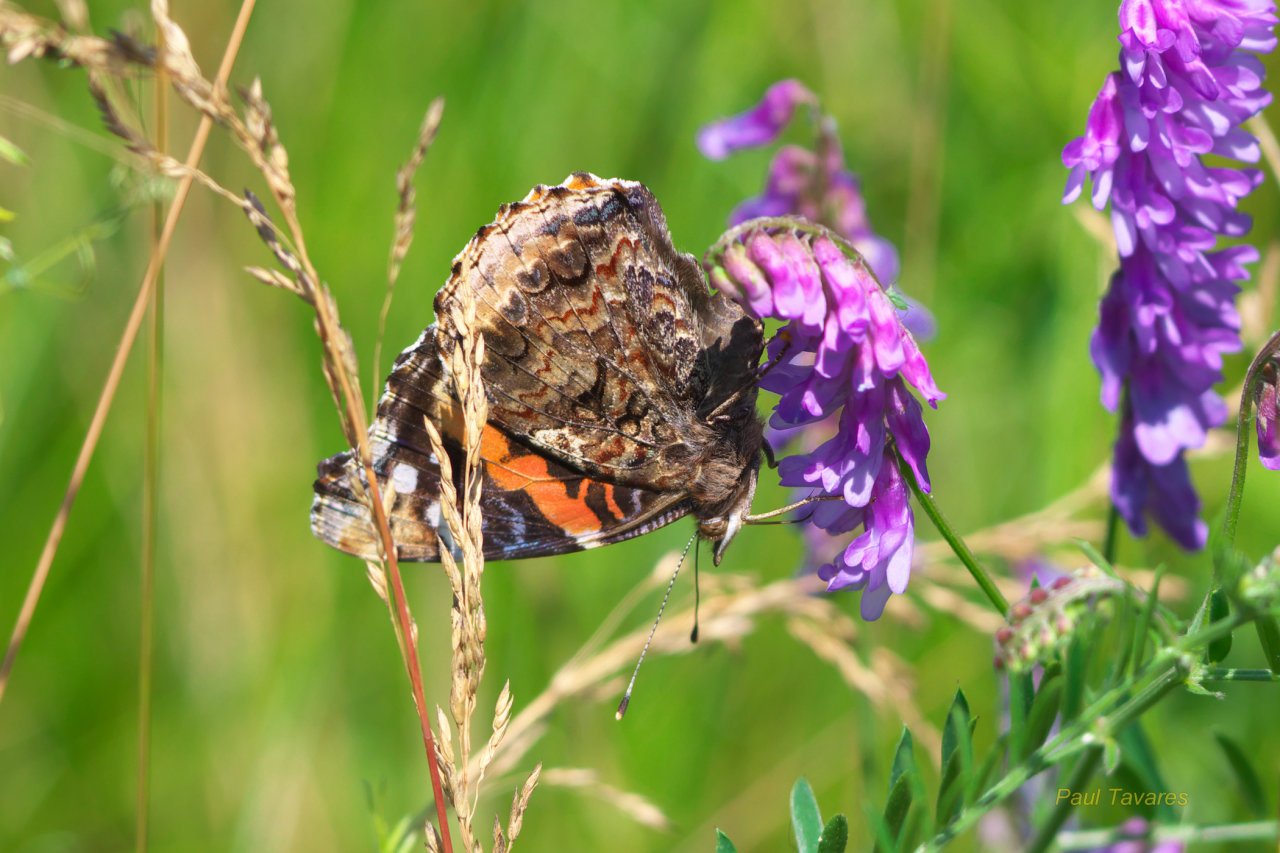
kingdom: Animalia
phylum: Arthropoda
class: Insecta
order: Lepidoptera
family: Nymphalidae
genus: Vanessa
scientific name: Vanessa atalanta
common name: Red Admiral
